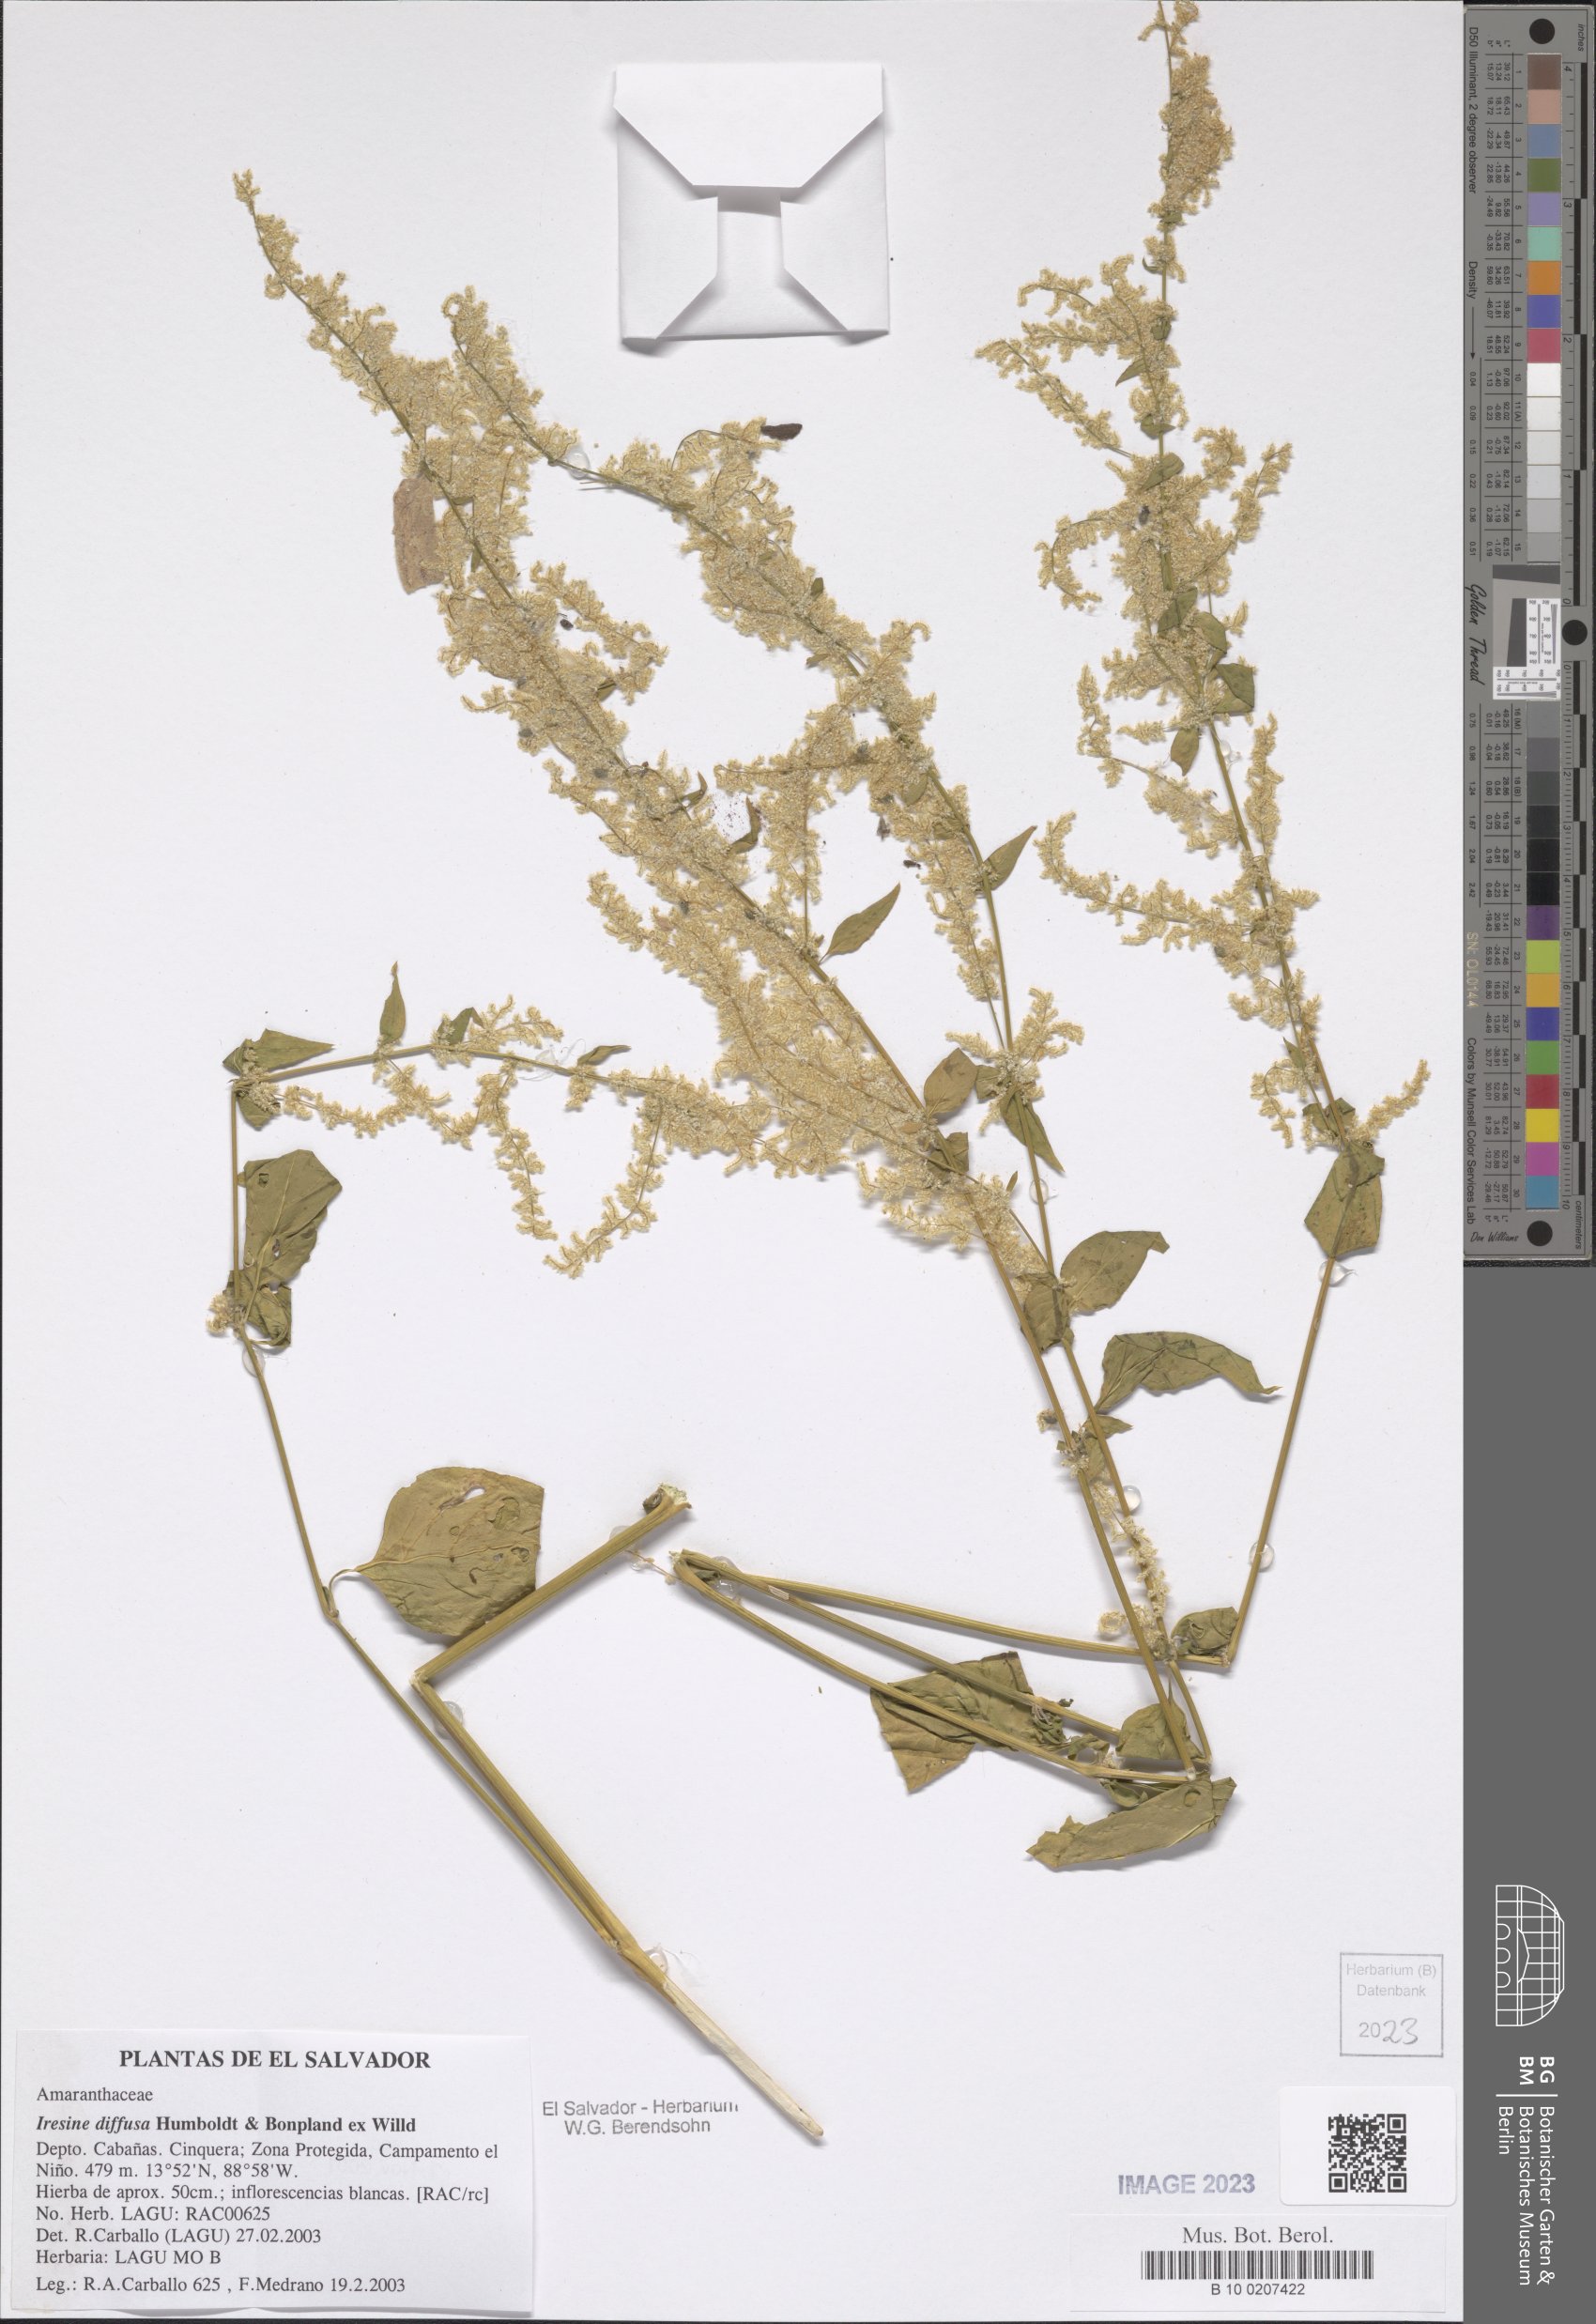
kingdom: Plantae
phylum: Tracheophyta
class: Magnoliopsida
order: Caryophyllales
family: Amaranthaceae
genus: Iresine
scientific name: Iresine diffusa
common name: Juba's-bush
